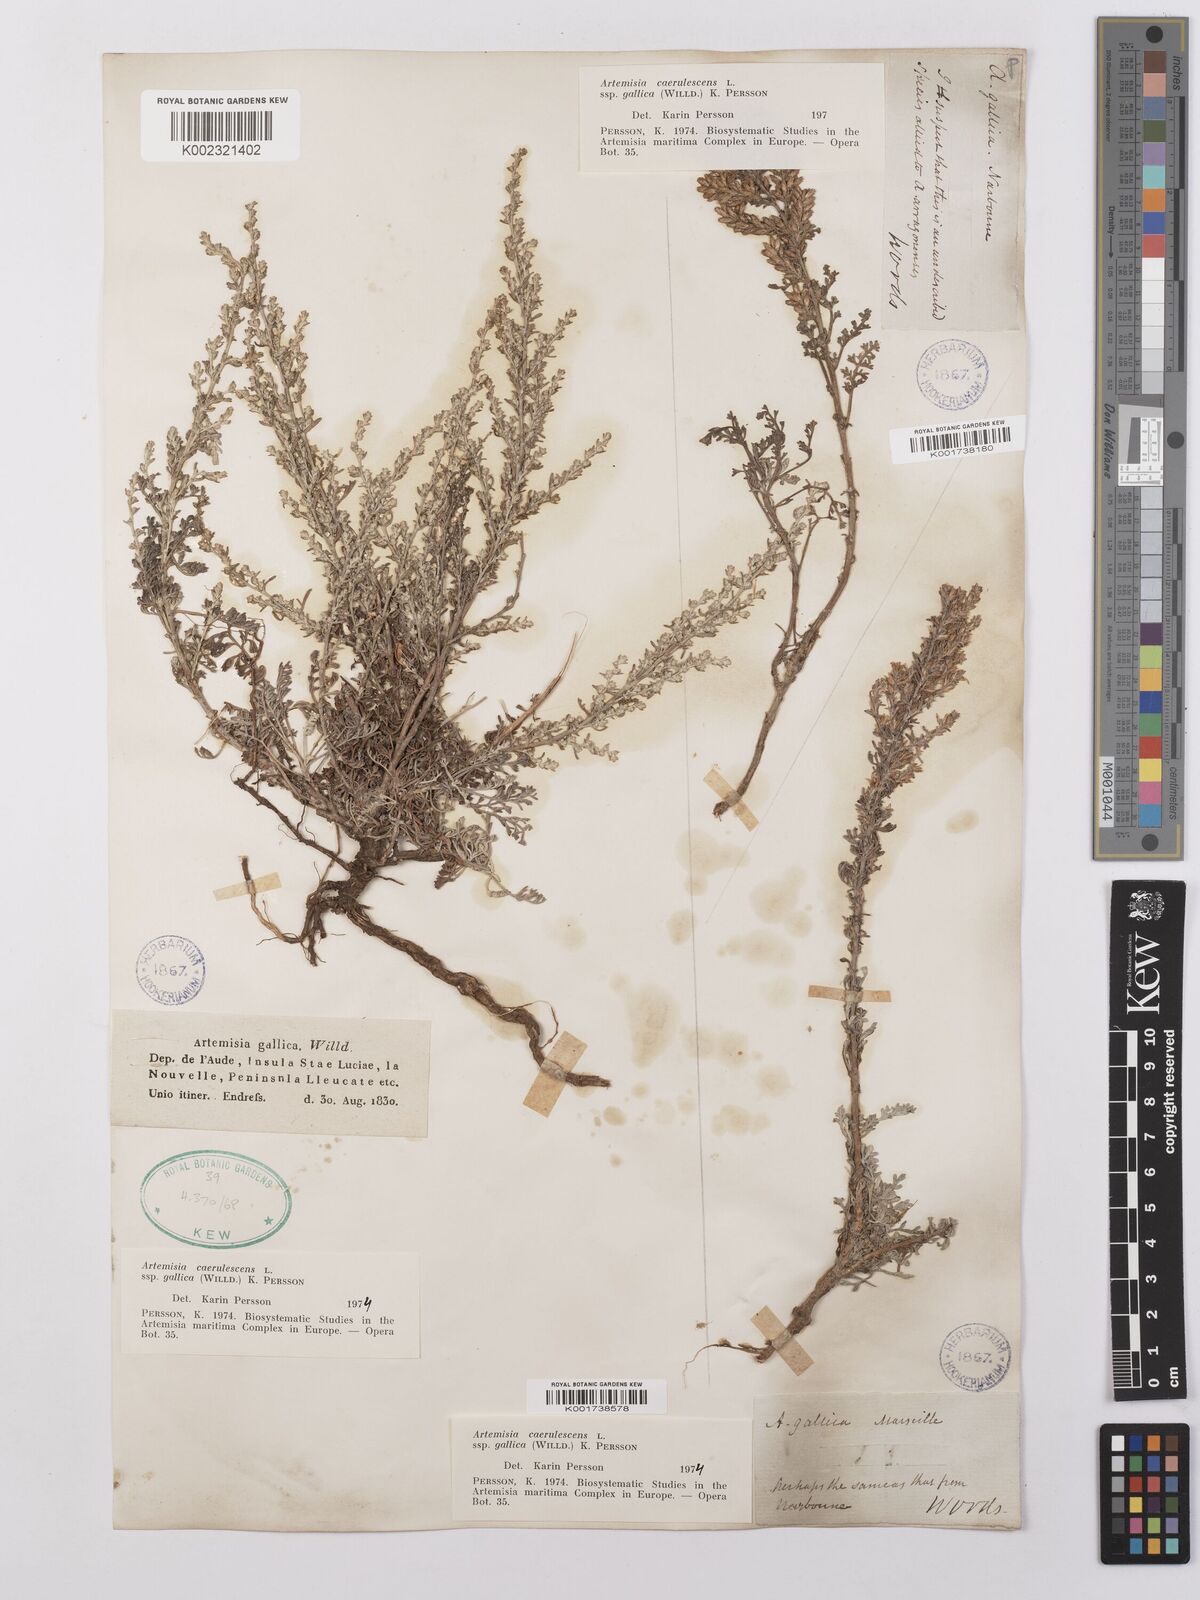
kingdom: Plantae
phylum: Tracheophyta
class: Magnoliopsida
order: Asterales
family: Asteraceae
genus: Artemisia
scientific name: Artemisia caerulescens
